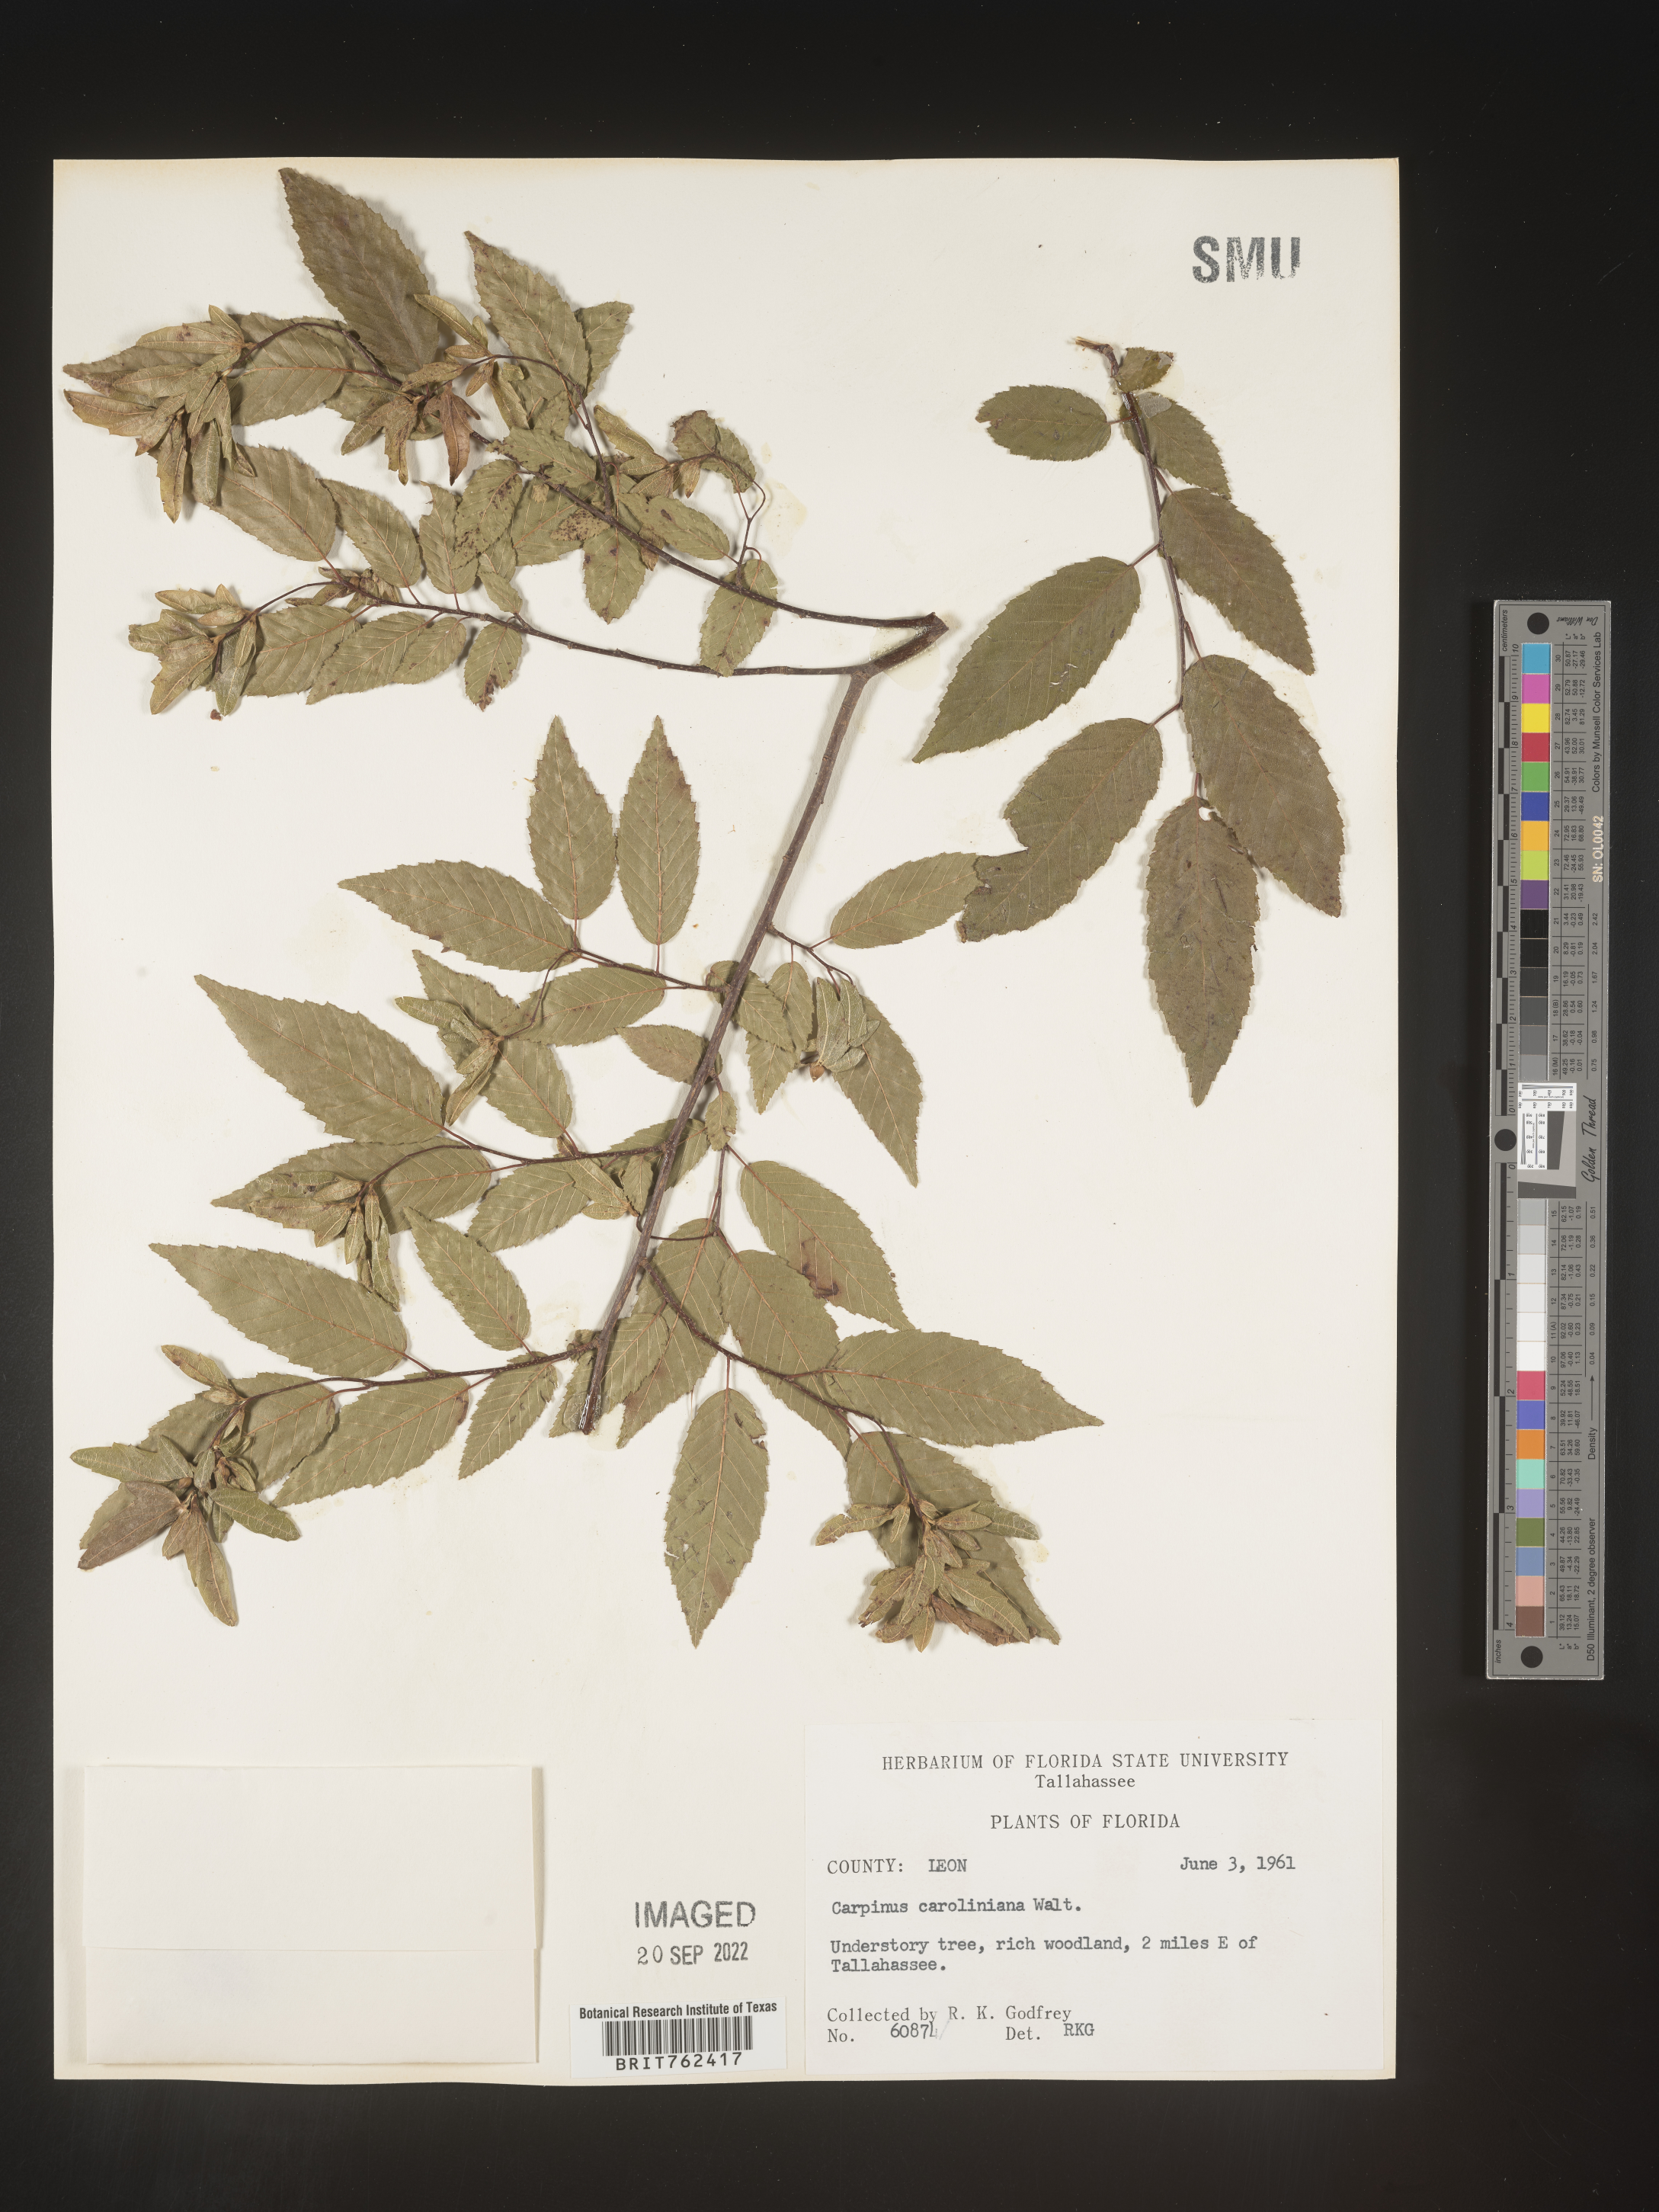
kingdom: Plantae
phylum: Tracheophyta
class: Magnoliopsida
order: Fagales
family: Betulaceae
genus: Carpinus
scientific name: Carpinus caroliniana
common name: American hornbeam
